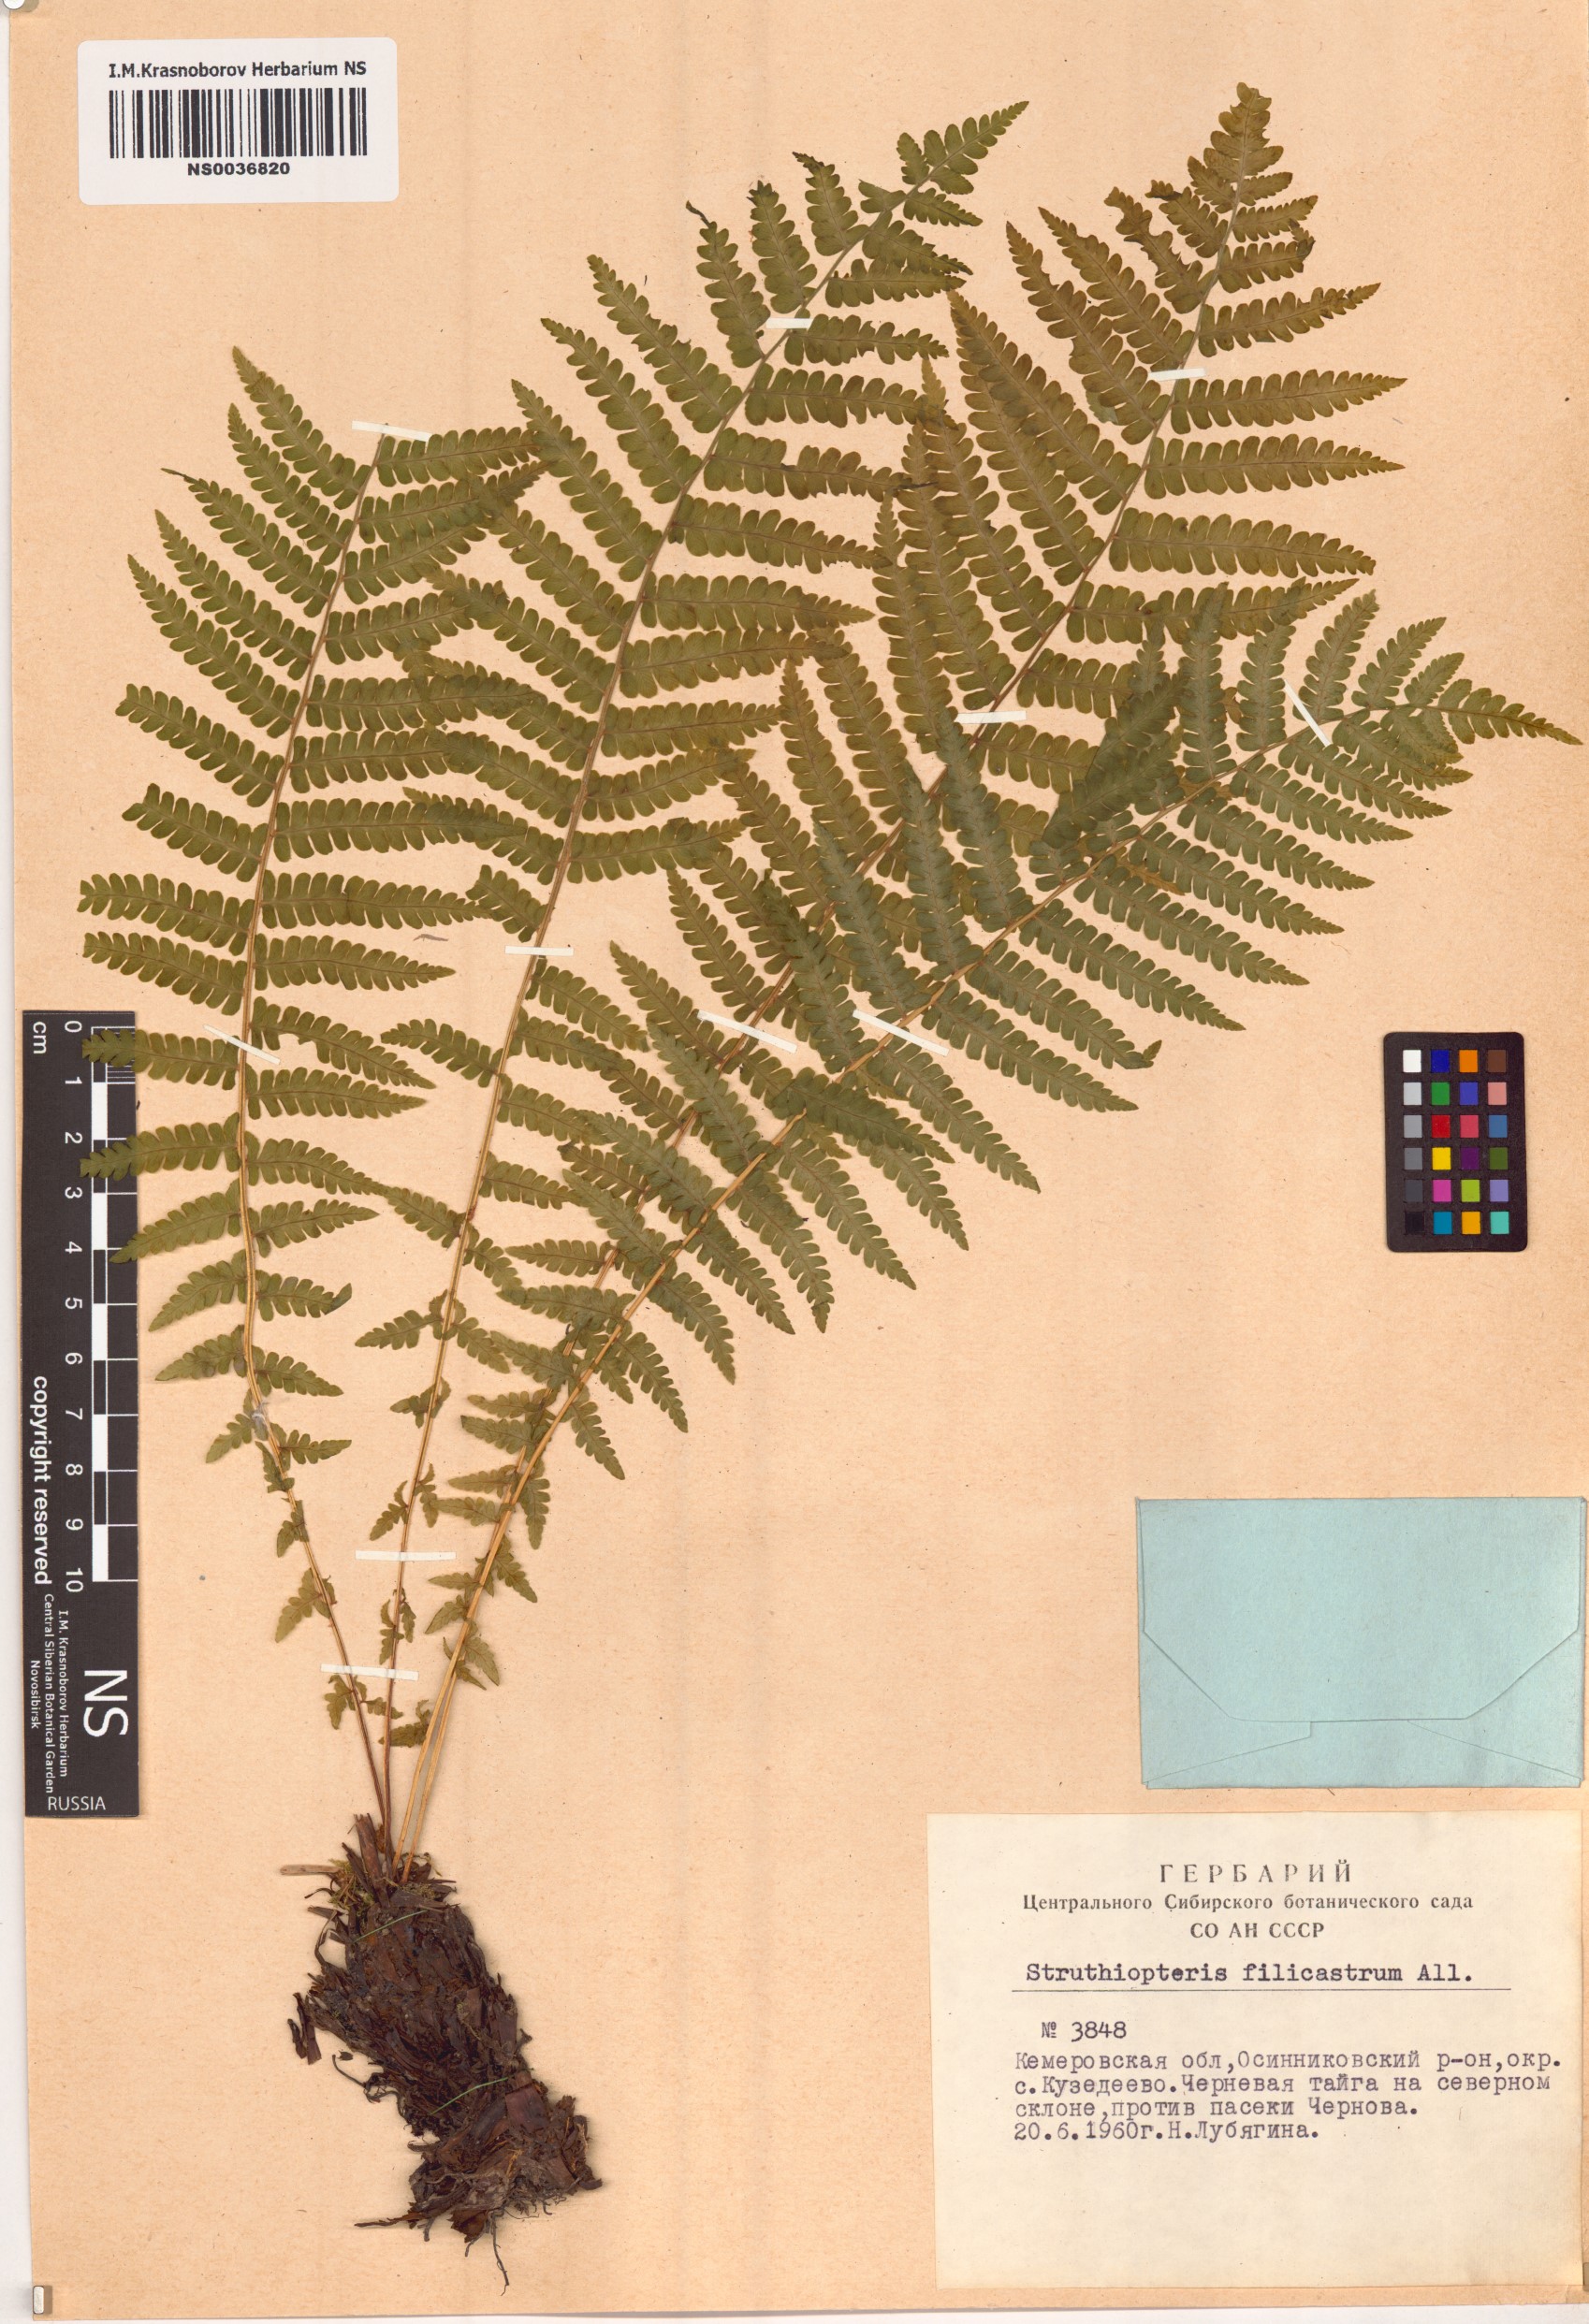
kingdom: Plantae
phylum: Tracheophyta
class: Polypodiopsida
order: Polypodiales
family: Onocleaceae
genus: Matteuccia
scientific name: Matteuccia struthiopteris
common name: Ostrich fern
